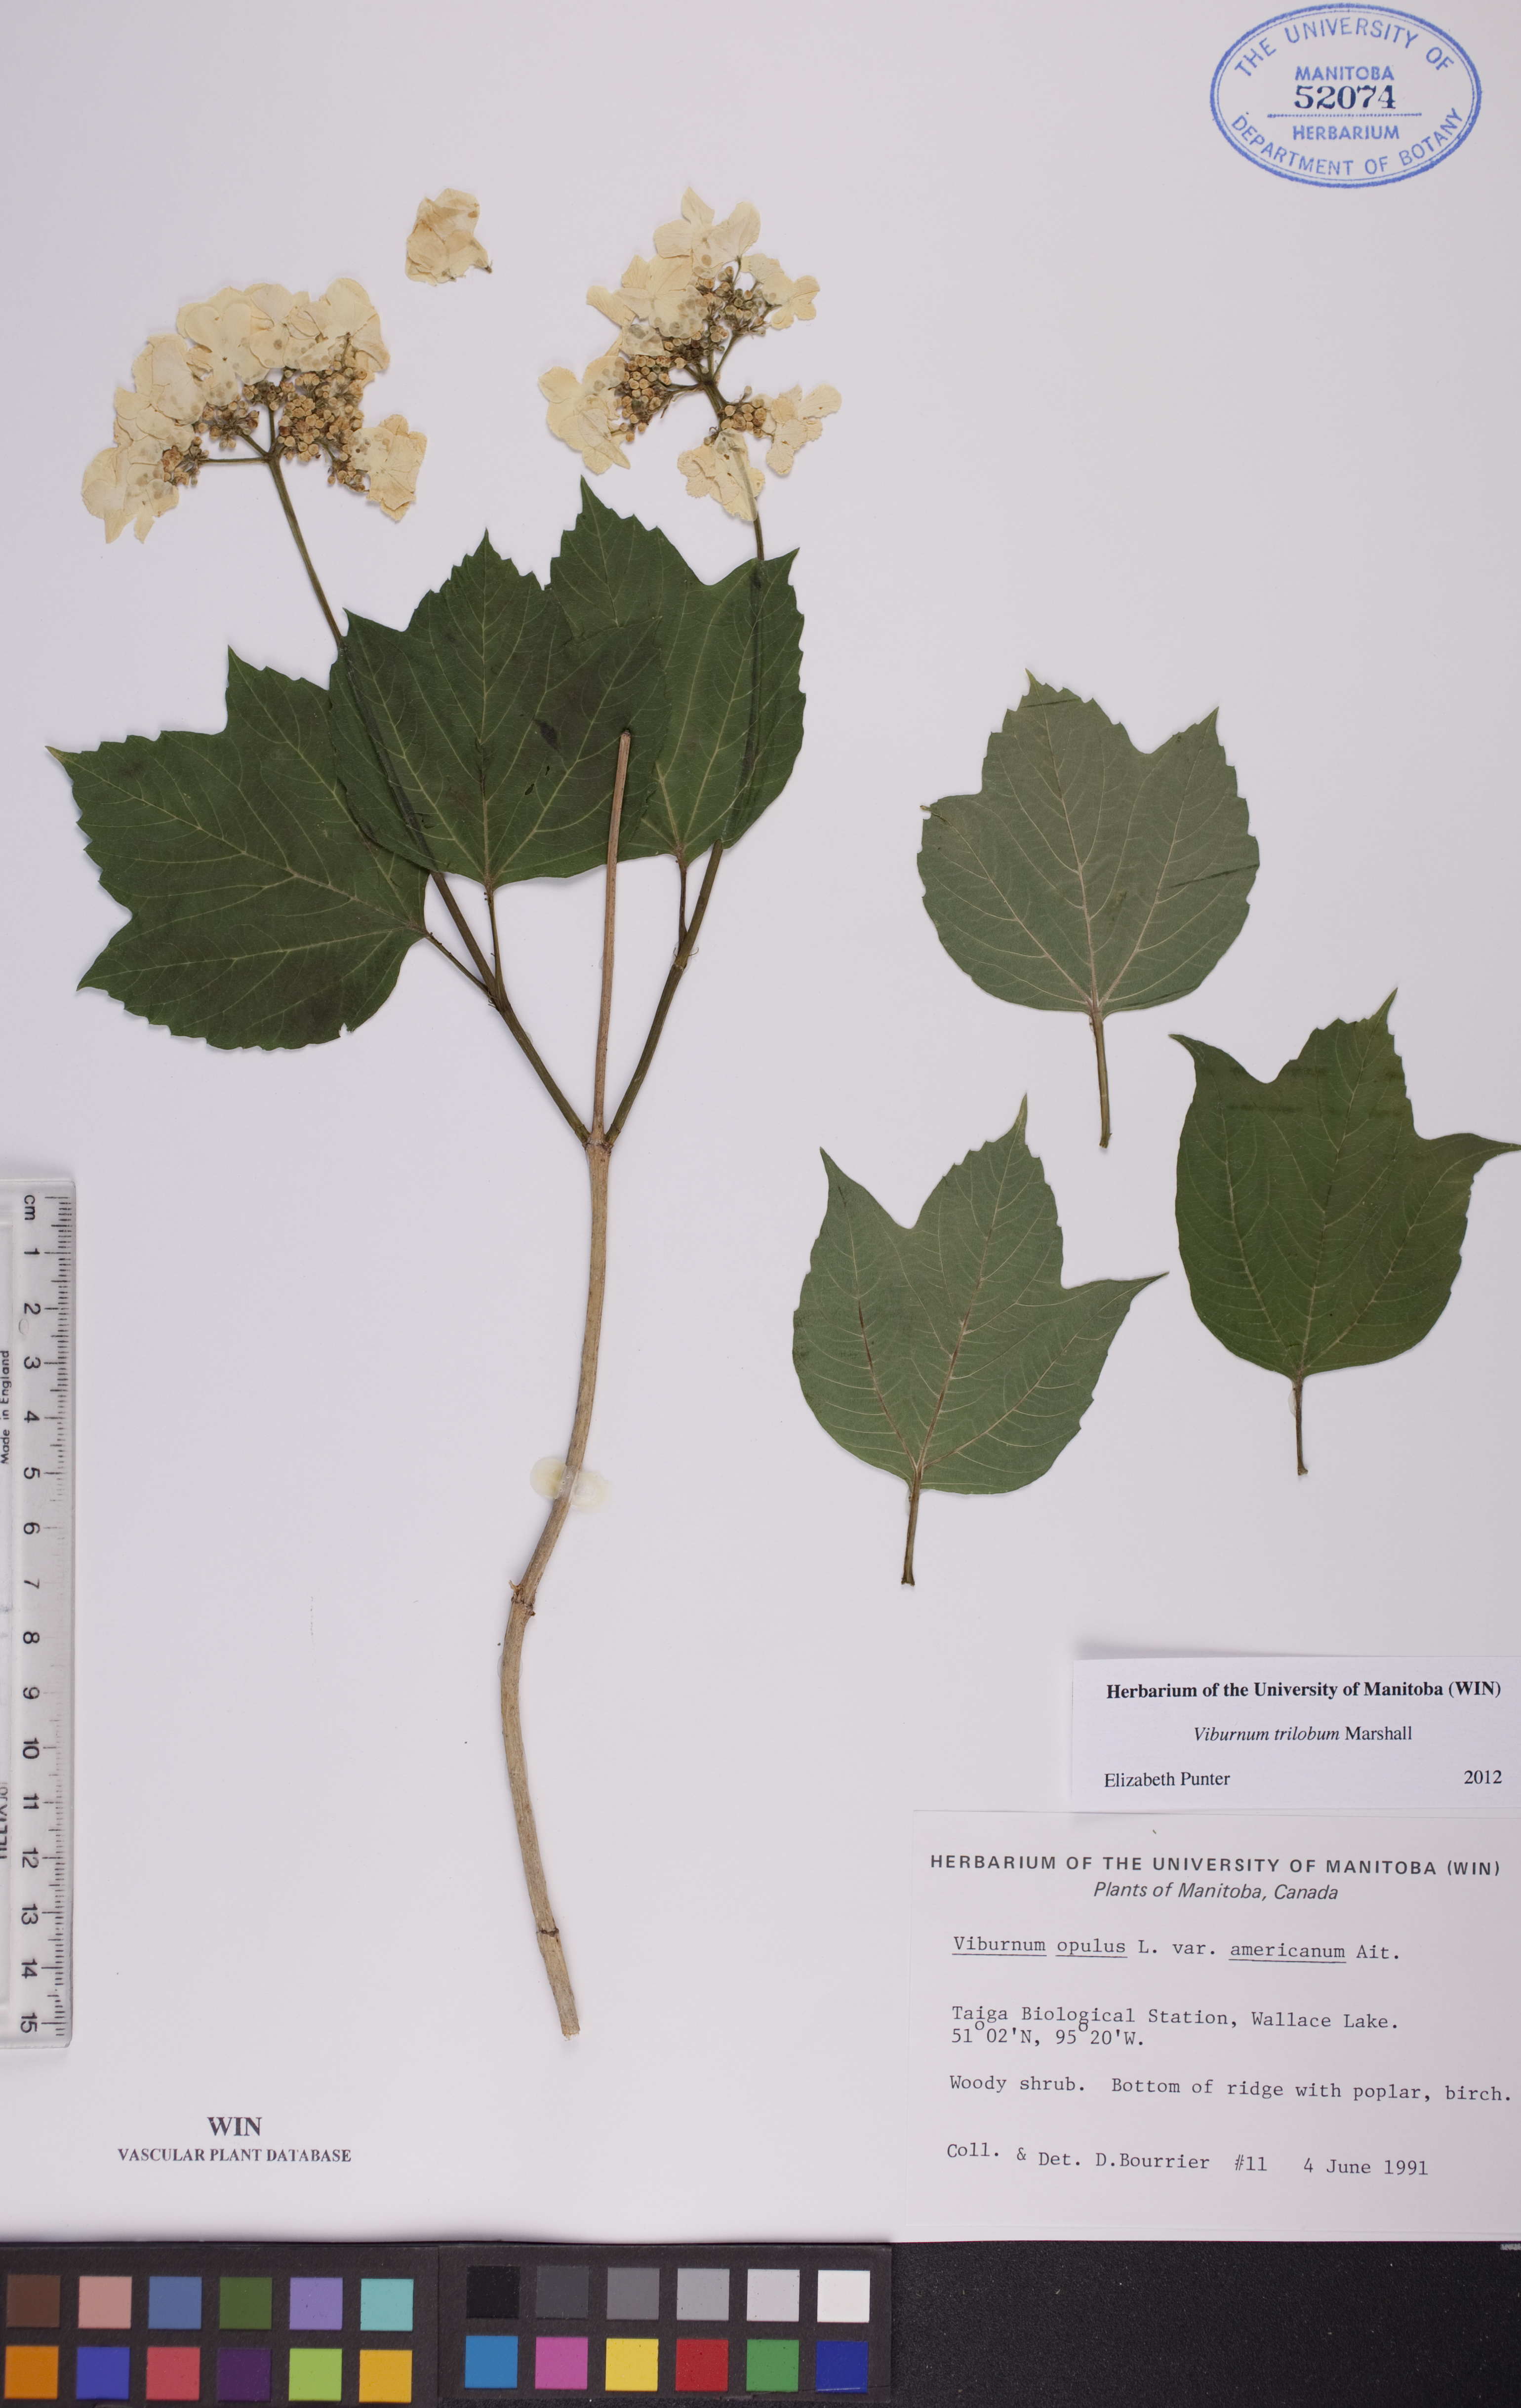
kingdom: Plantae
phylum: Tracheophyta
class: Magnoliopsida
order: Dipsacales
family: Viburnaceae
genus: Viburnum
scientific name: Viburnum trilobum
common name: American cranberrybush
